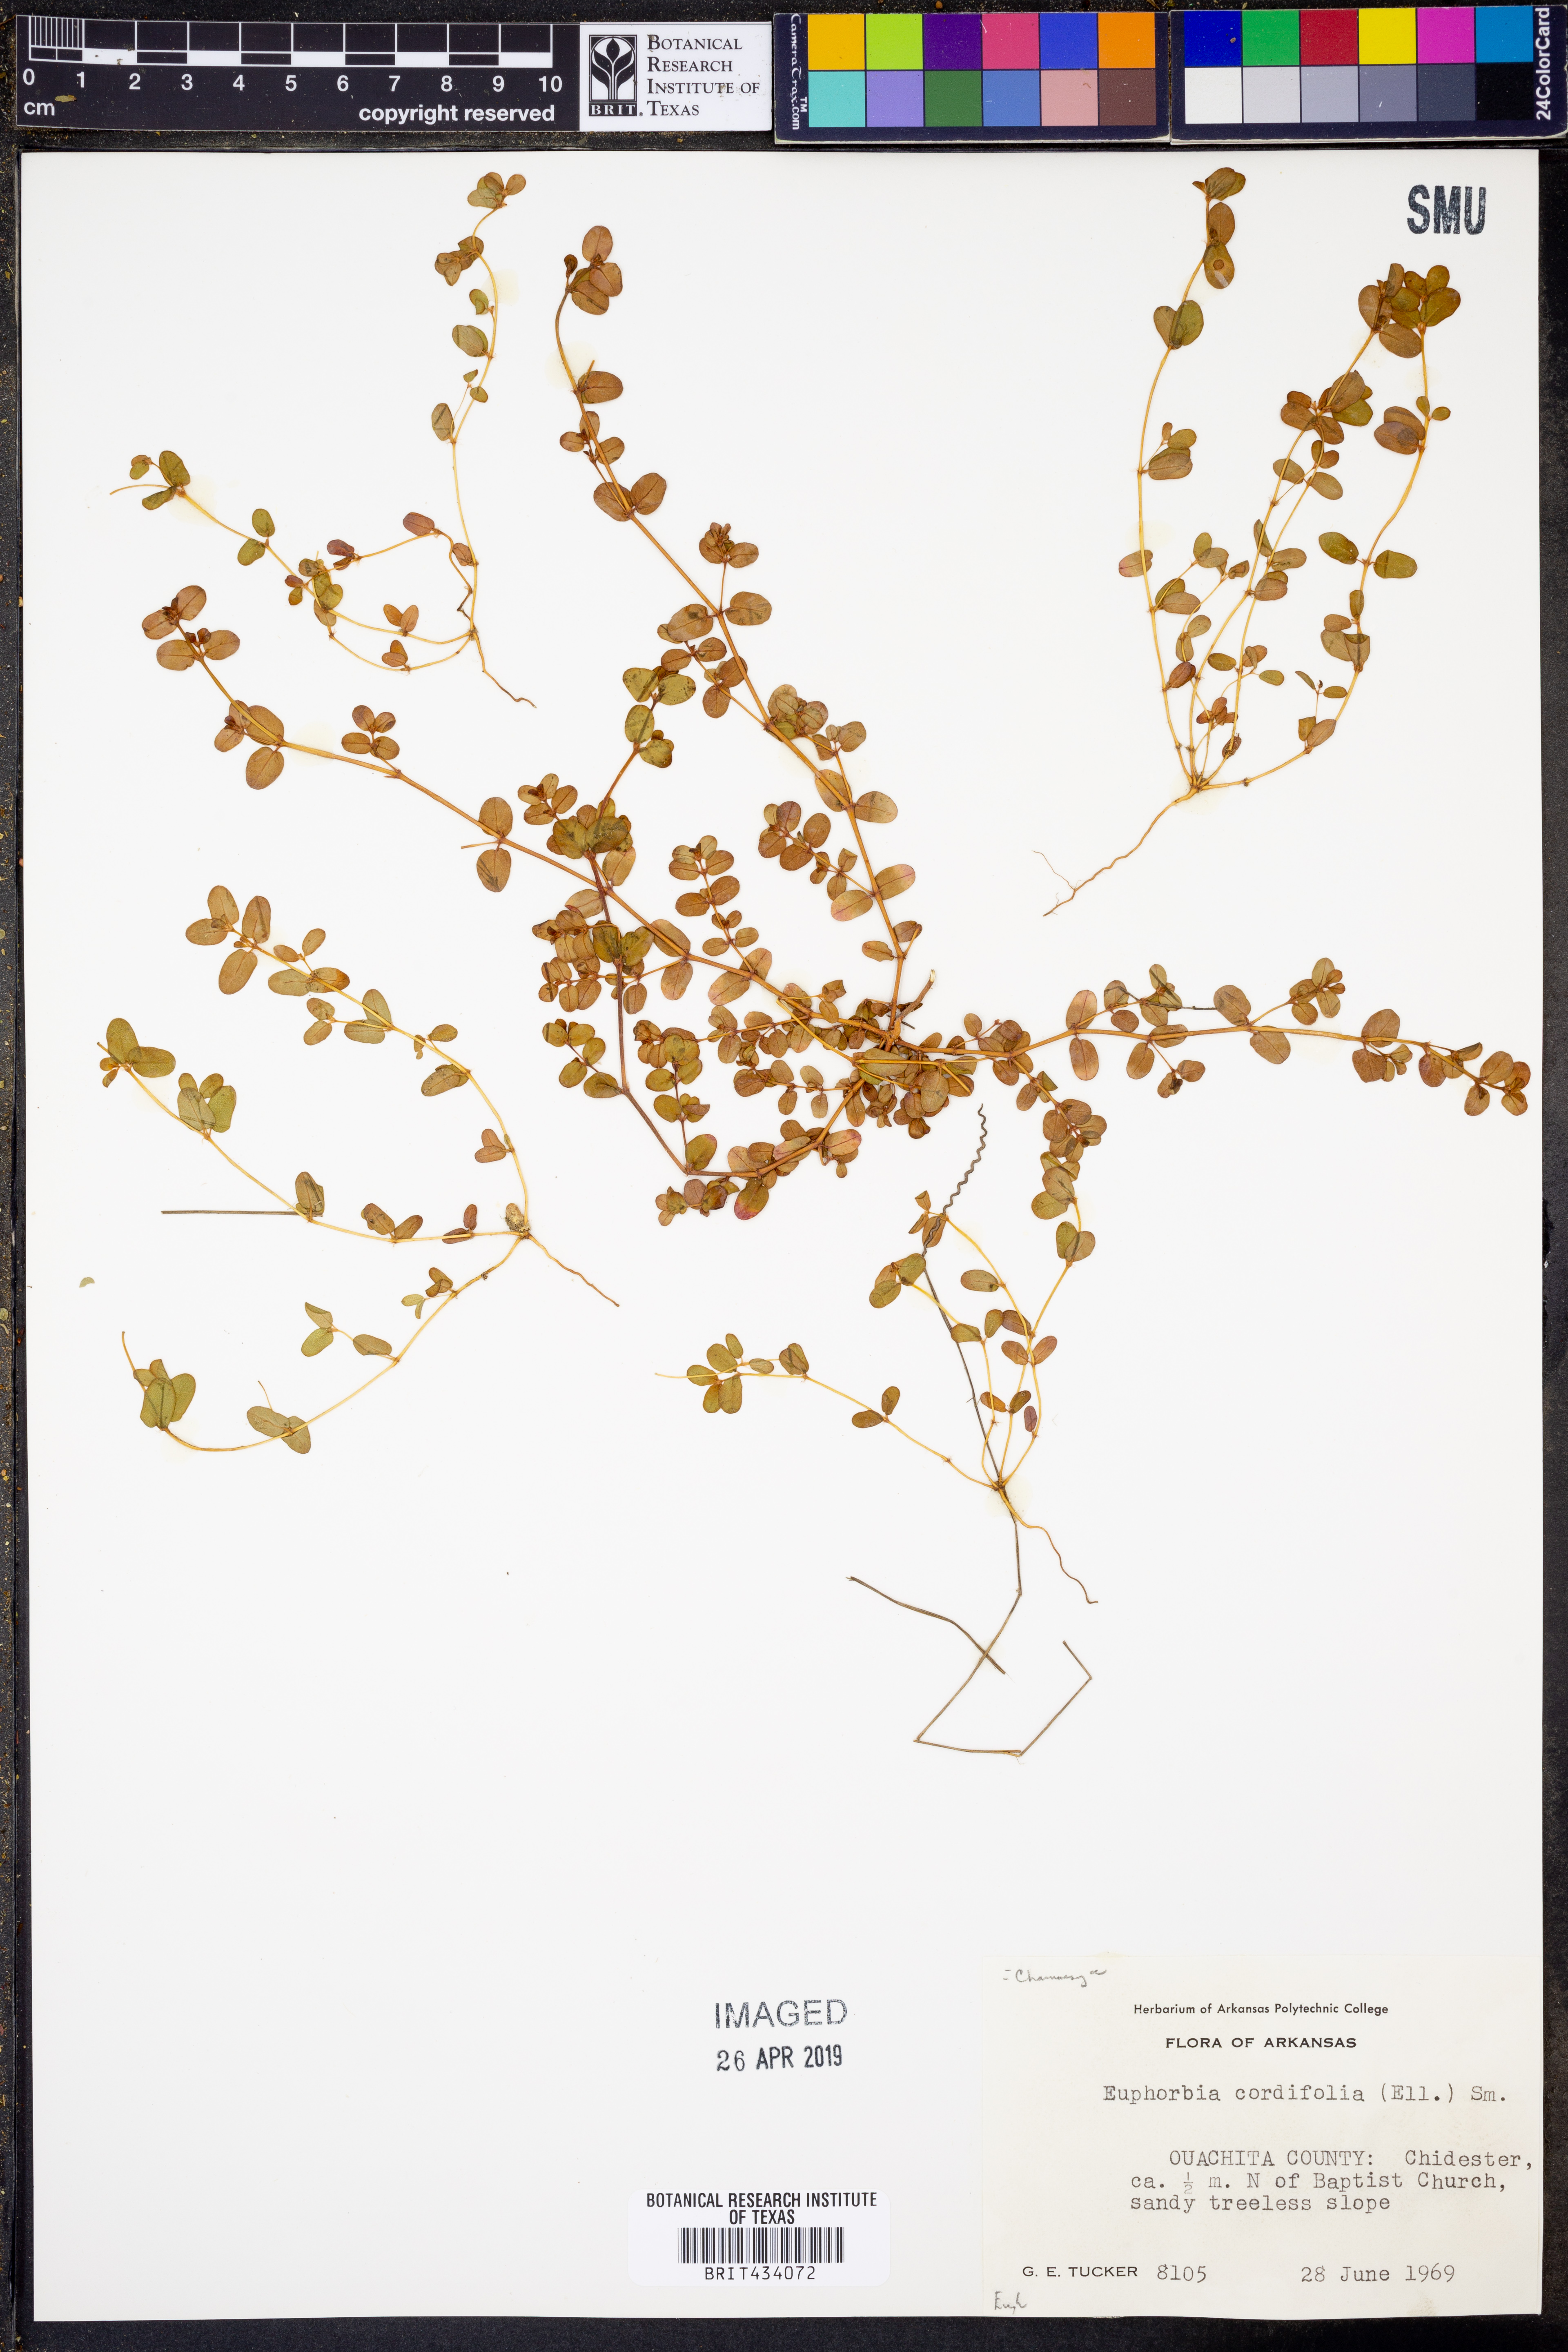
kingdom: Plantae
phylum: Tracheophyta
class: Magnoliopsida
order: Malpighiales
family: Euphorbiaceae
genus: Euphorbia
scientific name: Euphorbia cordifolia
